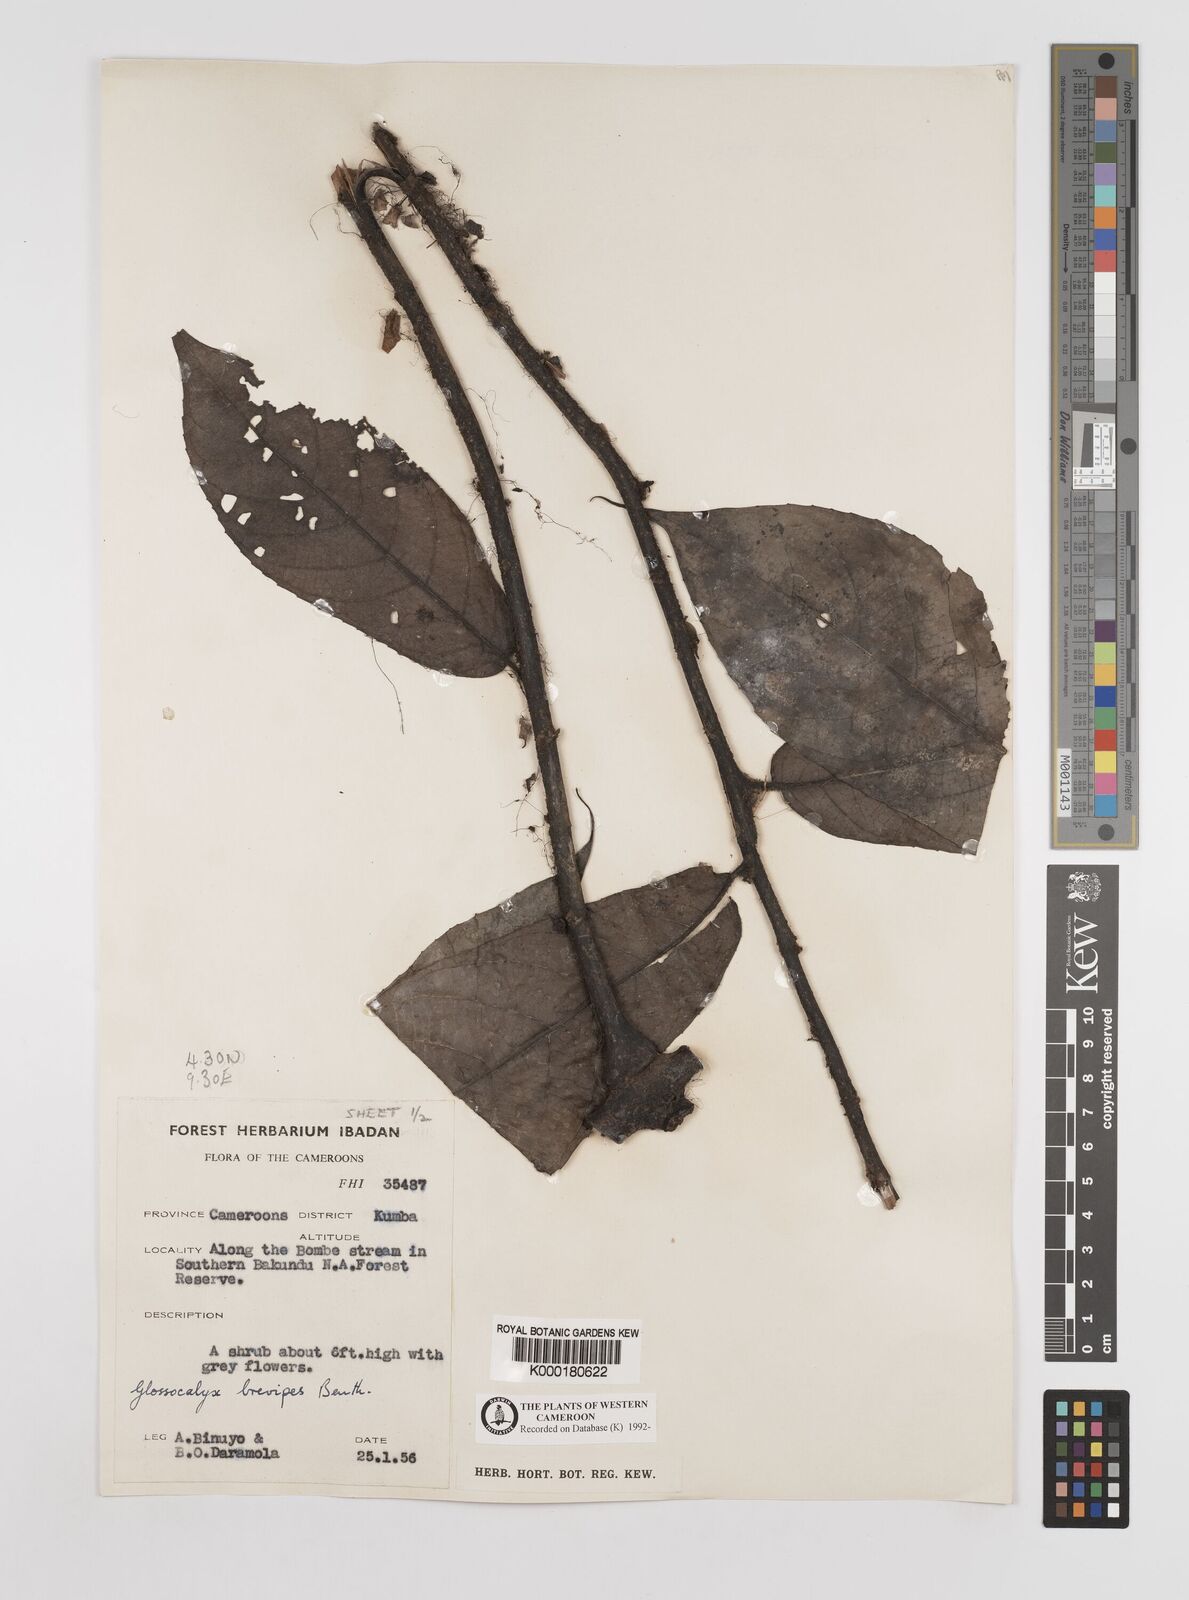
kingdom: Plantae
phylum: Tracheophyta
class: Magnoliopsida
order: Laurales
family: Siparunaceae
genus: Glossocalyx
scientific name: Glossocalyx brevipes
